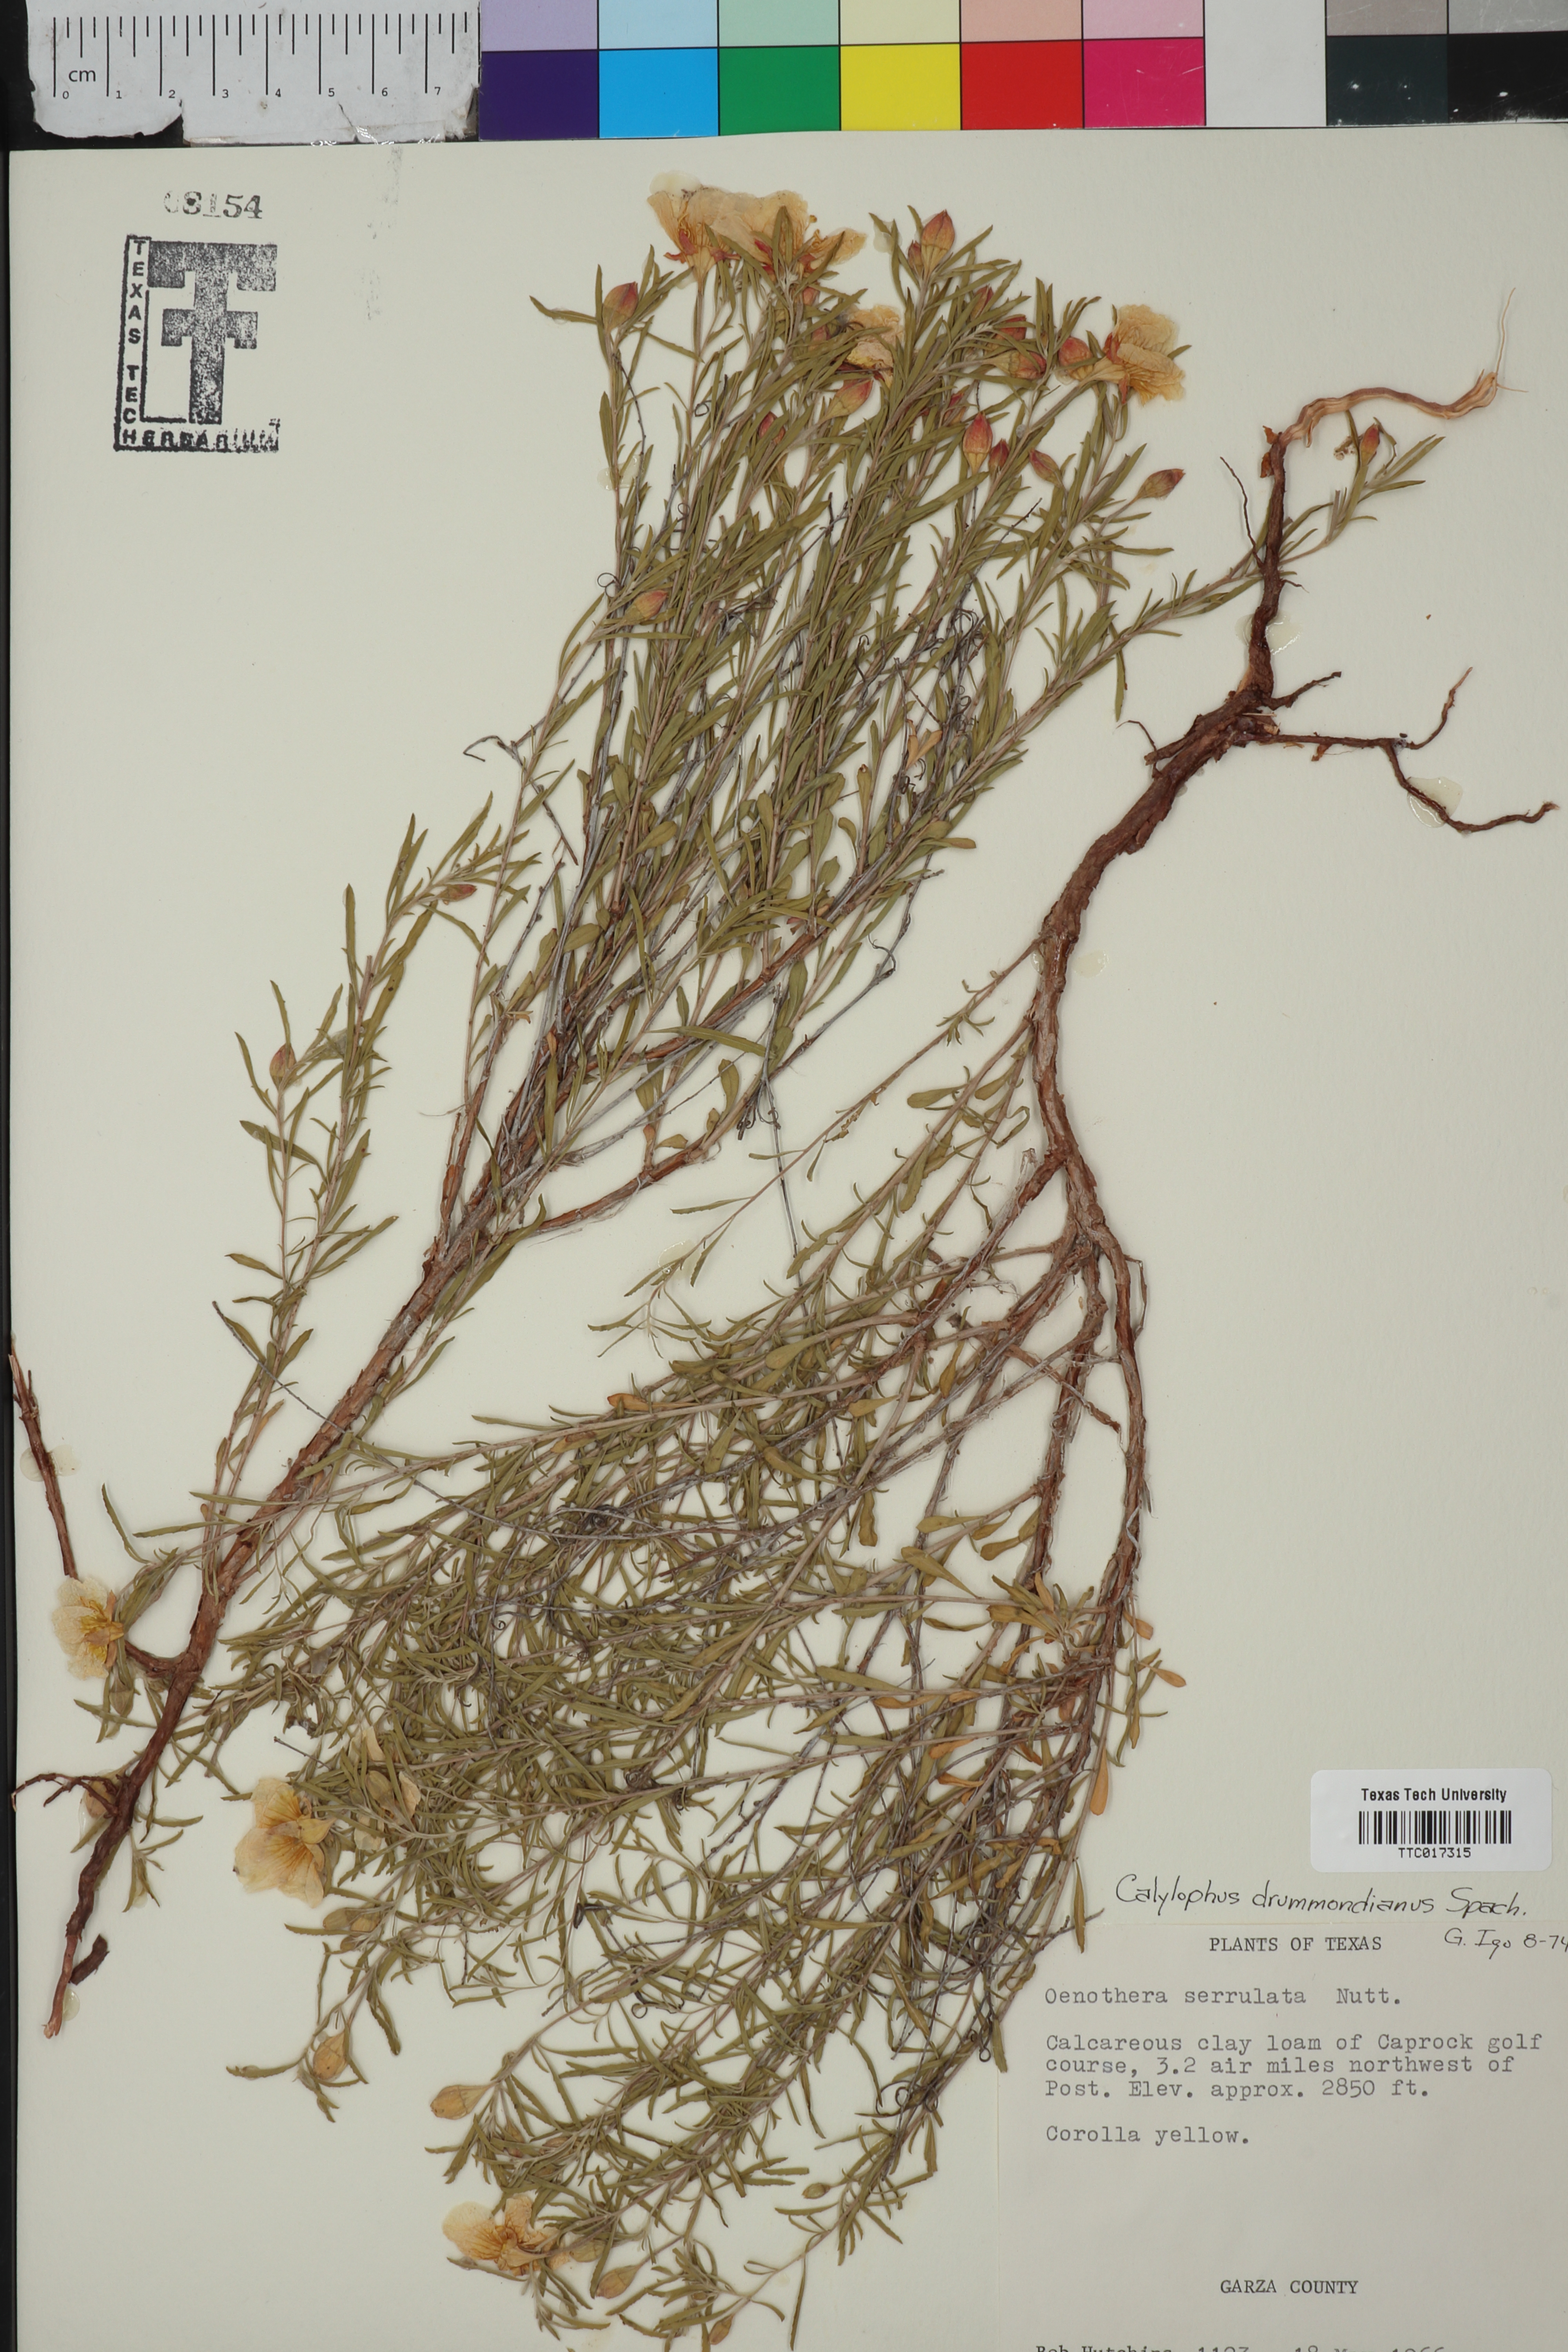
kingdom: Plantae
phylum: Tracheophyta
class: Magnoliopsida
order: Myrtales
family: Onagraceae
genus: Oenothera
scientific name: Oenothera serrulata
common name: Half-shrub calylophus
